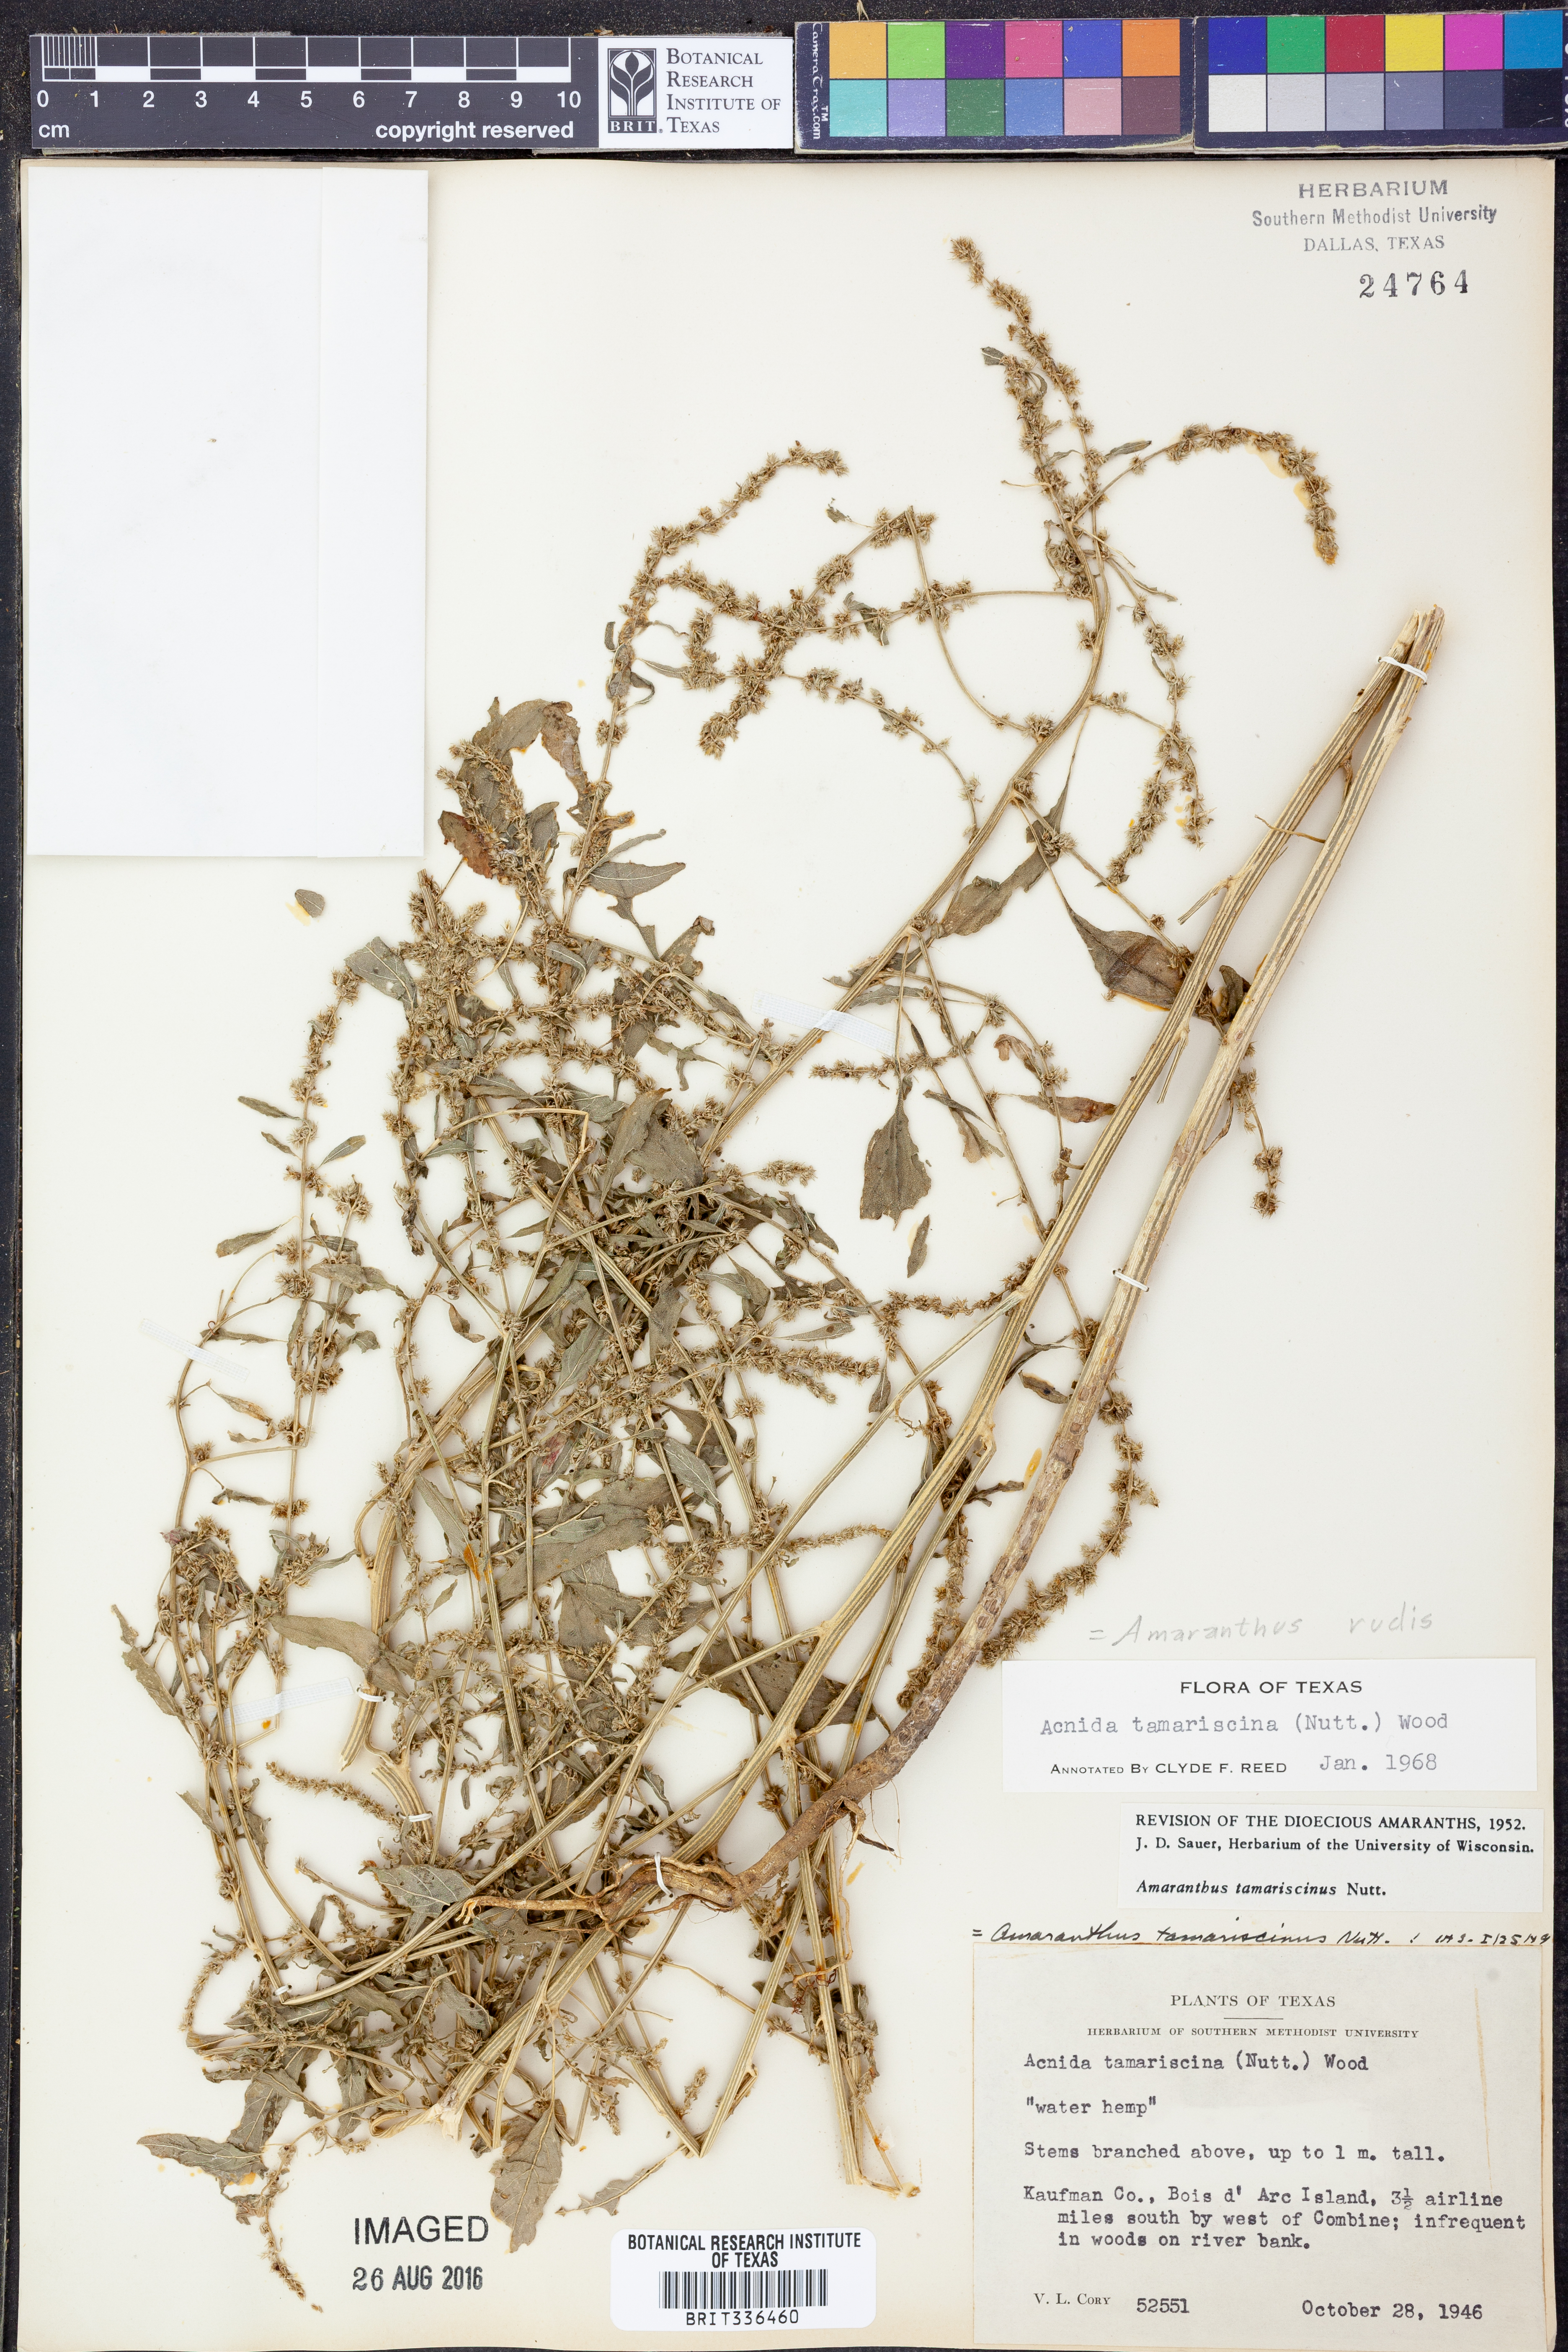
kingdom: Plantae
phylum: Tracheophyta
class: Magnoliopsida
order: Caryophyllales
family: Amaranthaceae
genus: Amaranthus
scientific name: Amaranthus tuberculatus
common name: Rough-fruit amaranth
